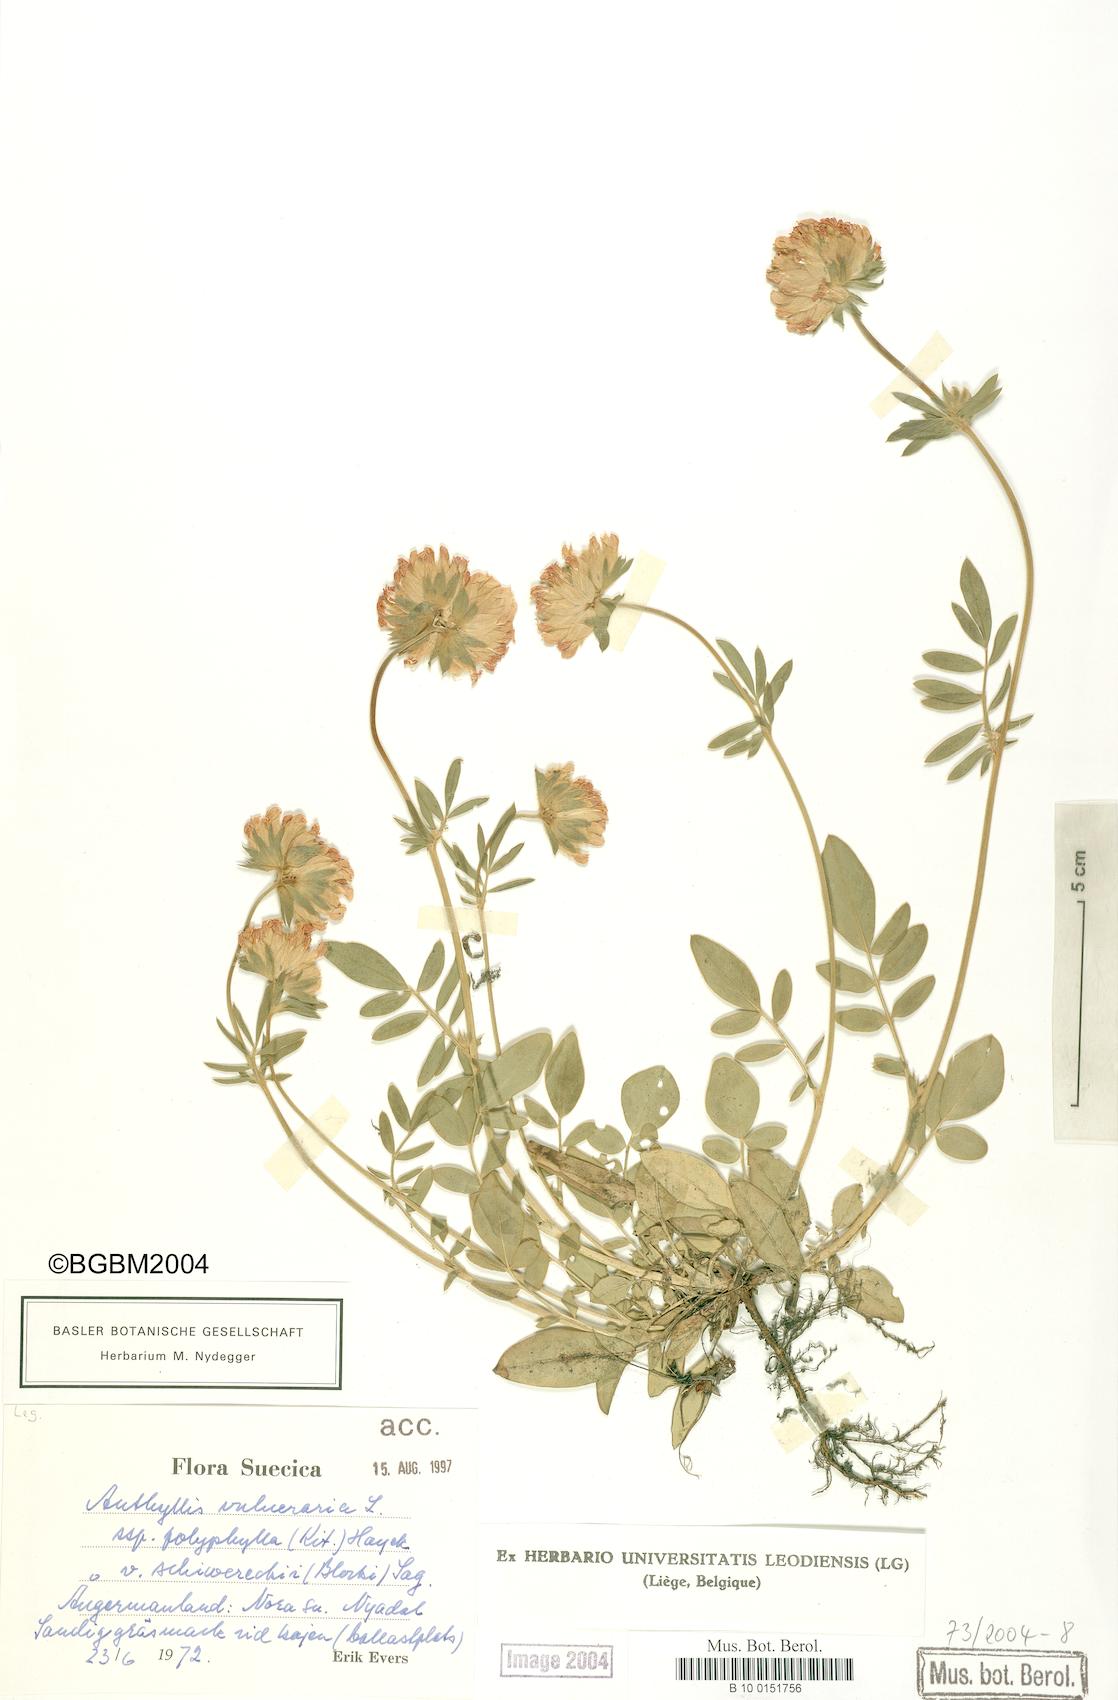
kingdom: Plantae
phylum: Tracheophyta
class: Magnoliopsida
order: Fabales
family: Fabaceae
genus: Anthyllis
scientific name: Anthyllis vulneraria
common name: Kidney vetch
